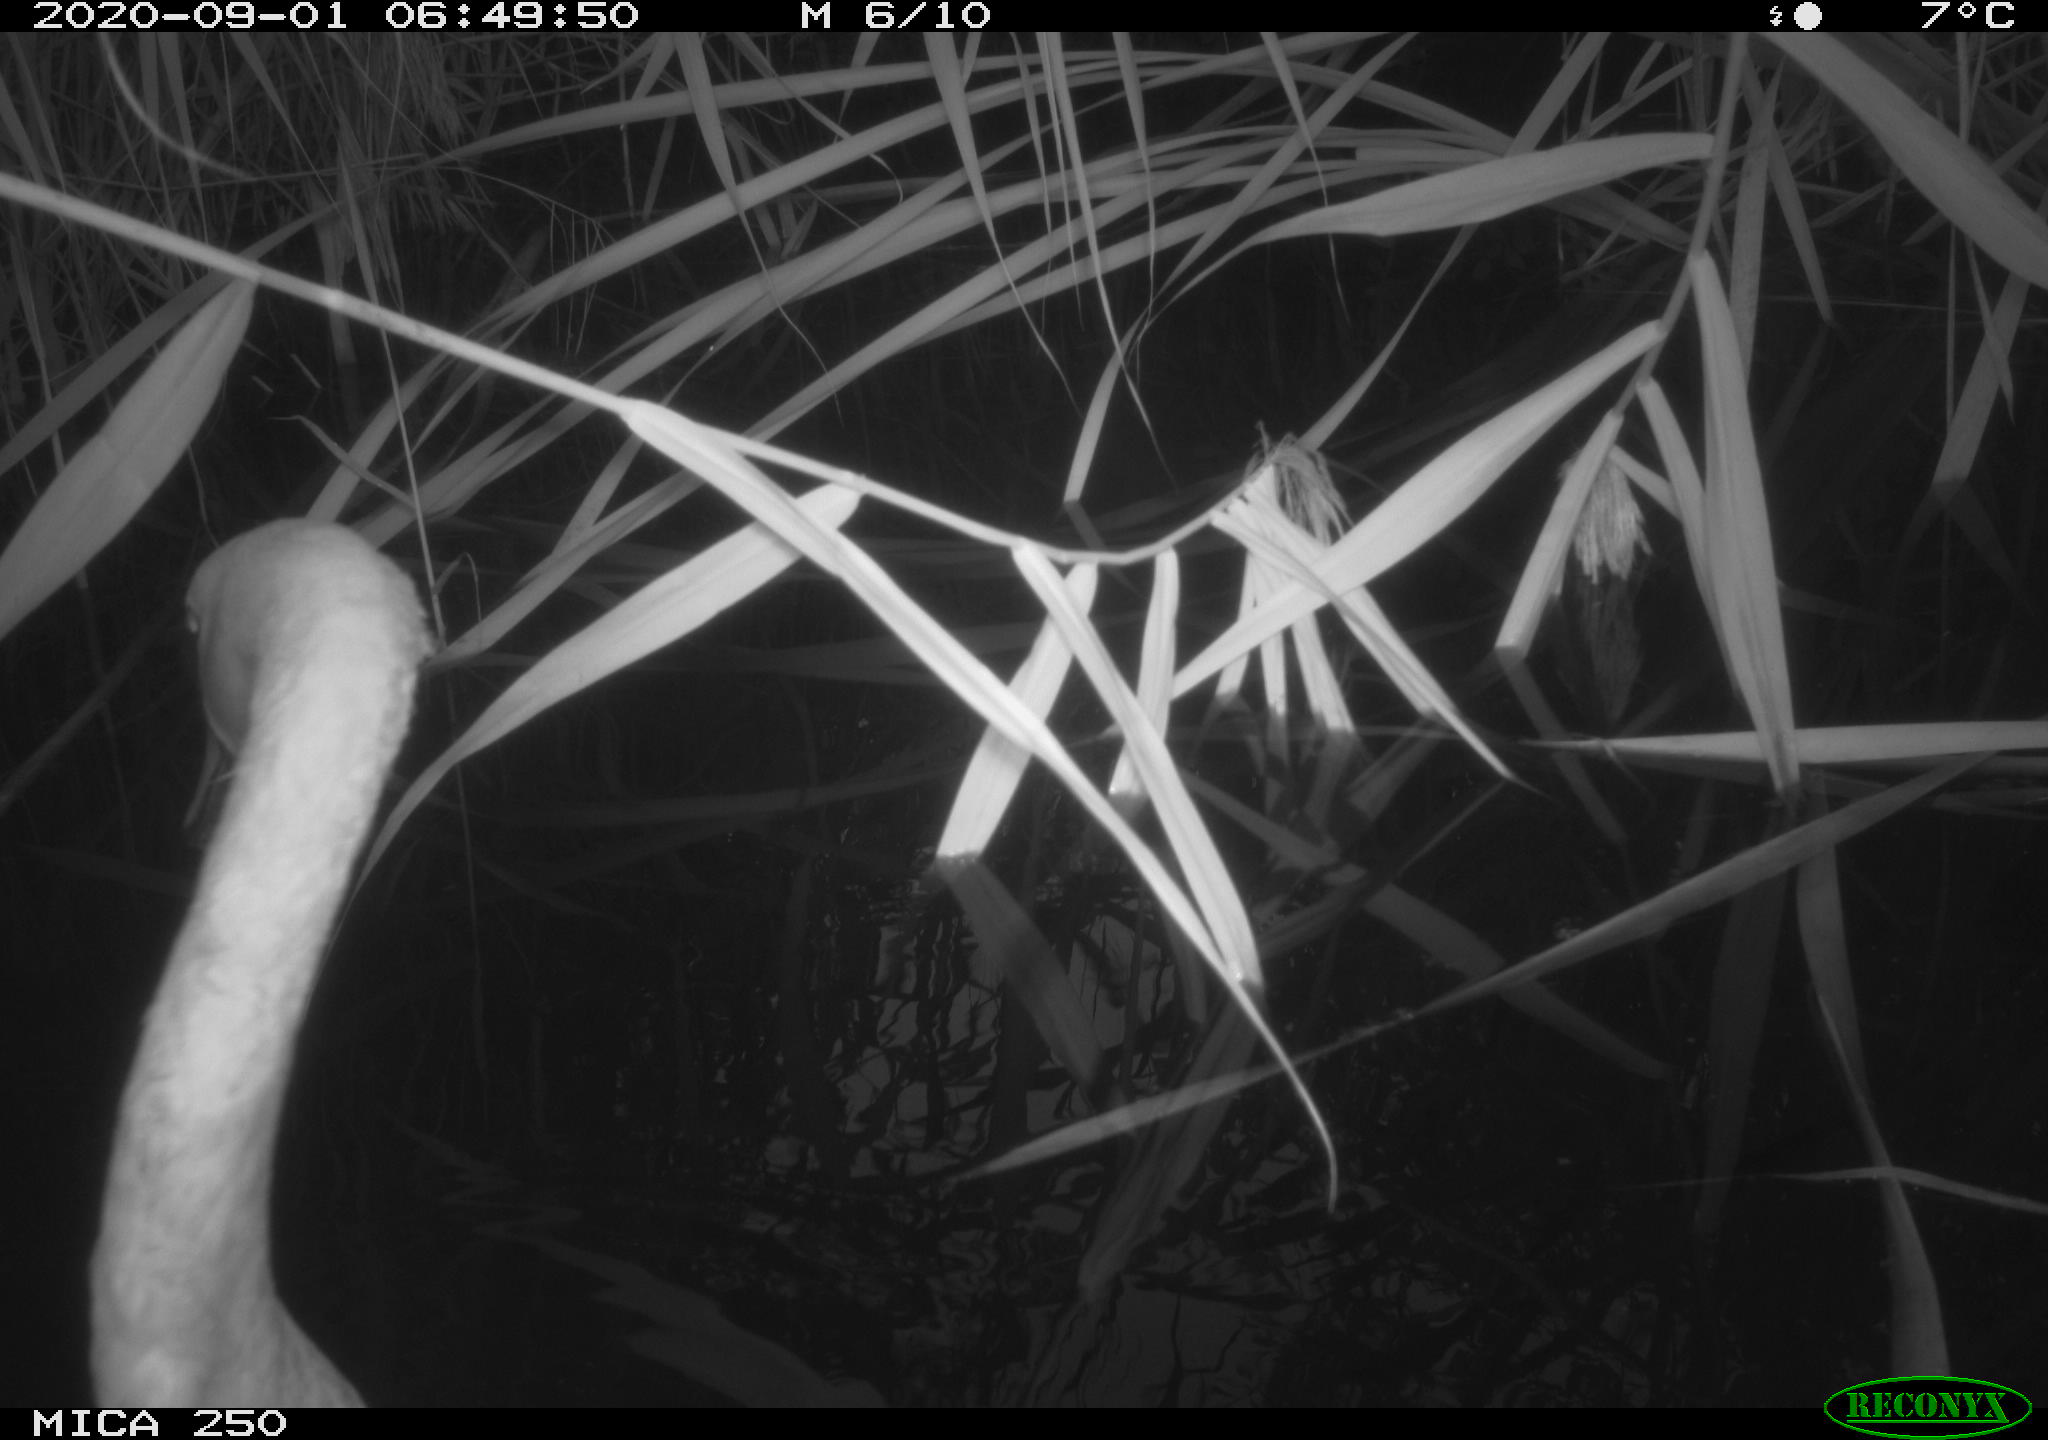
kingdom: Animalia
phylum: Chordata
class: Aves
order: Anseriformes
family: Anatidae
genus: Cygnus
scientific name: Cygnus olor
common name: Mute swan
